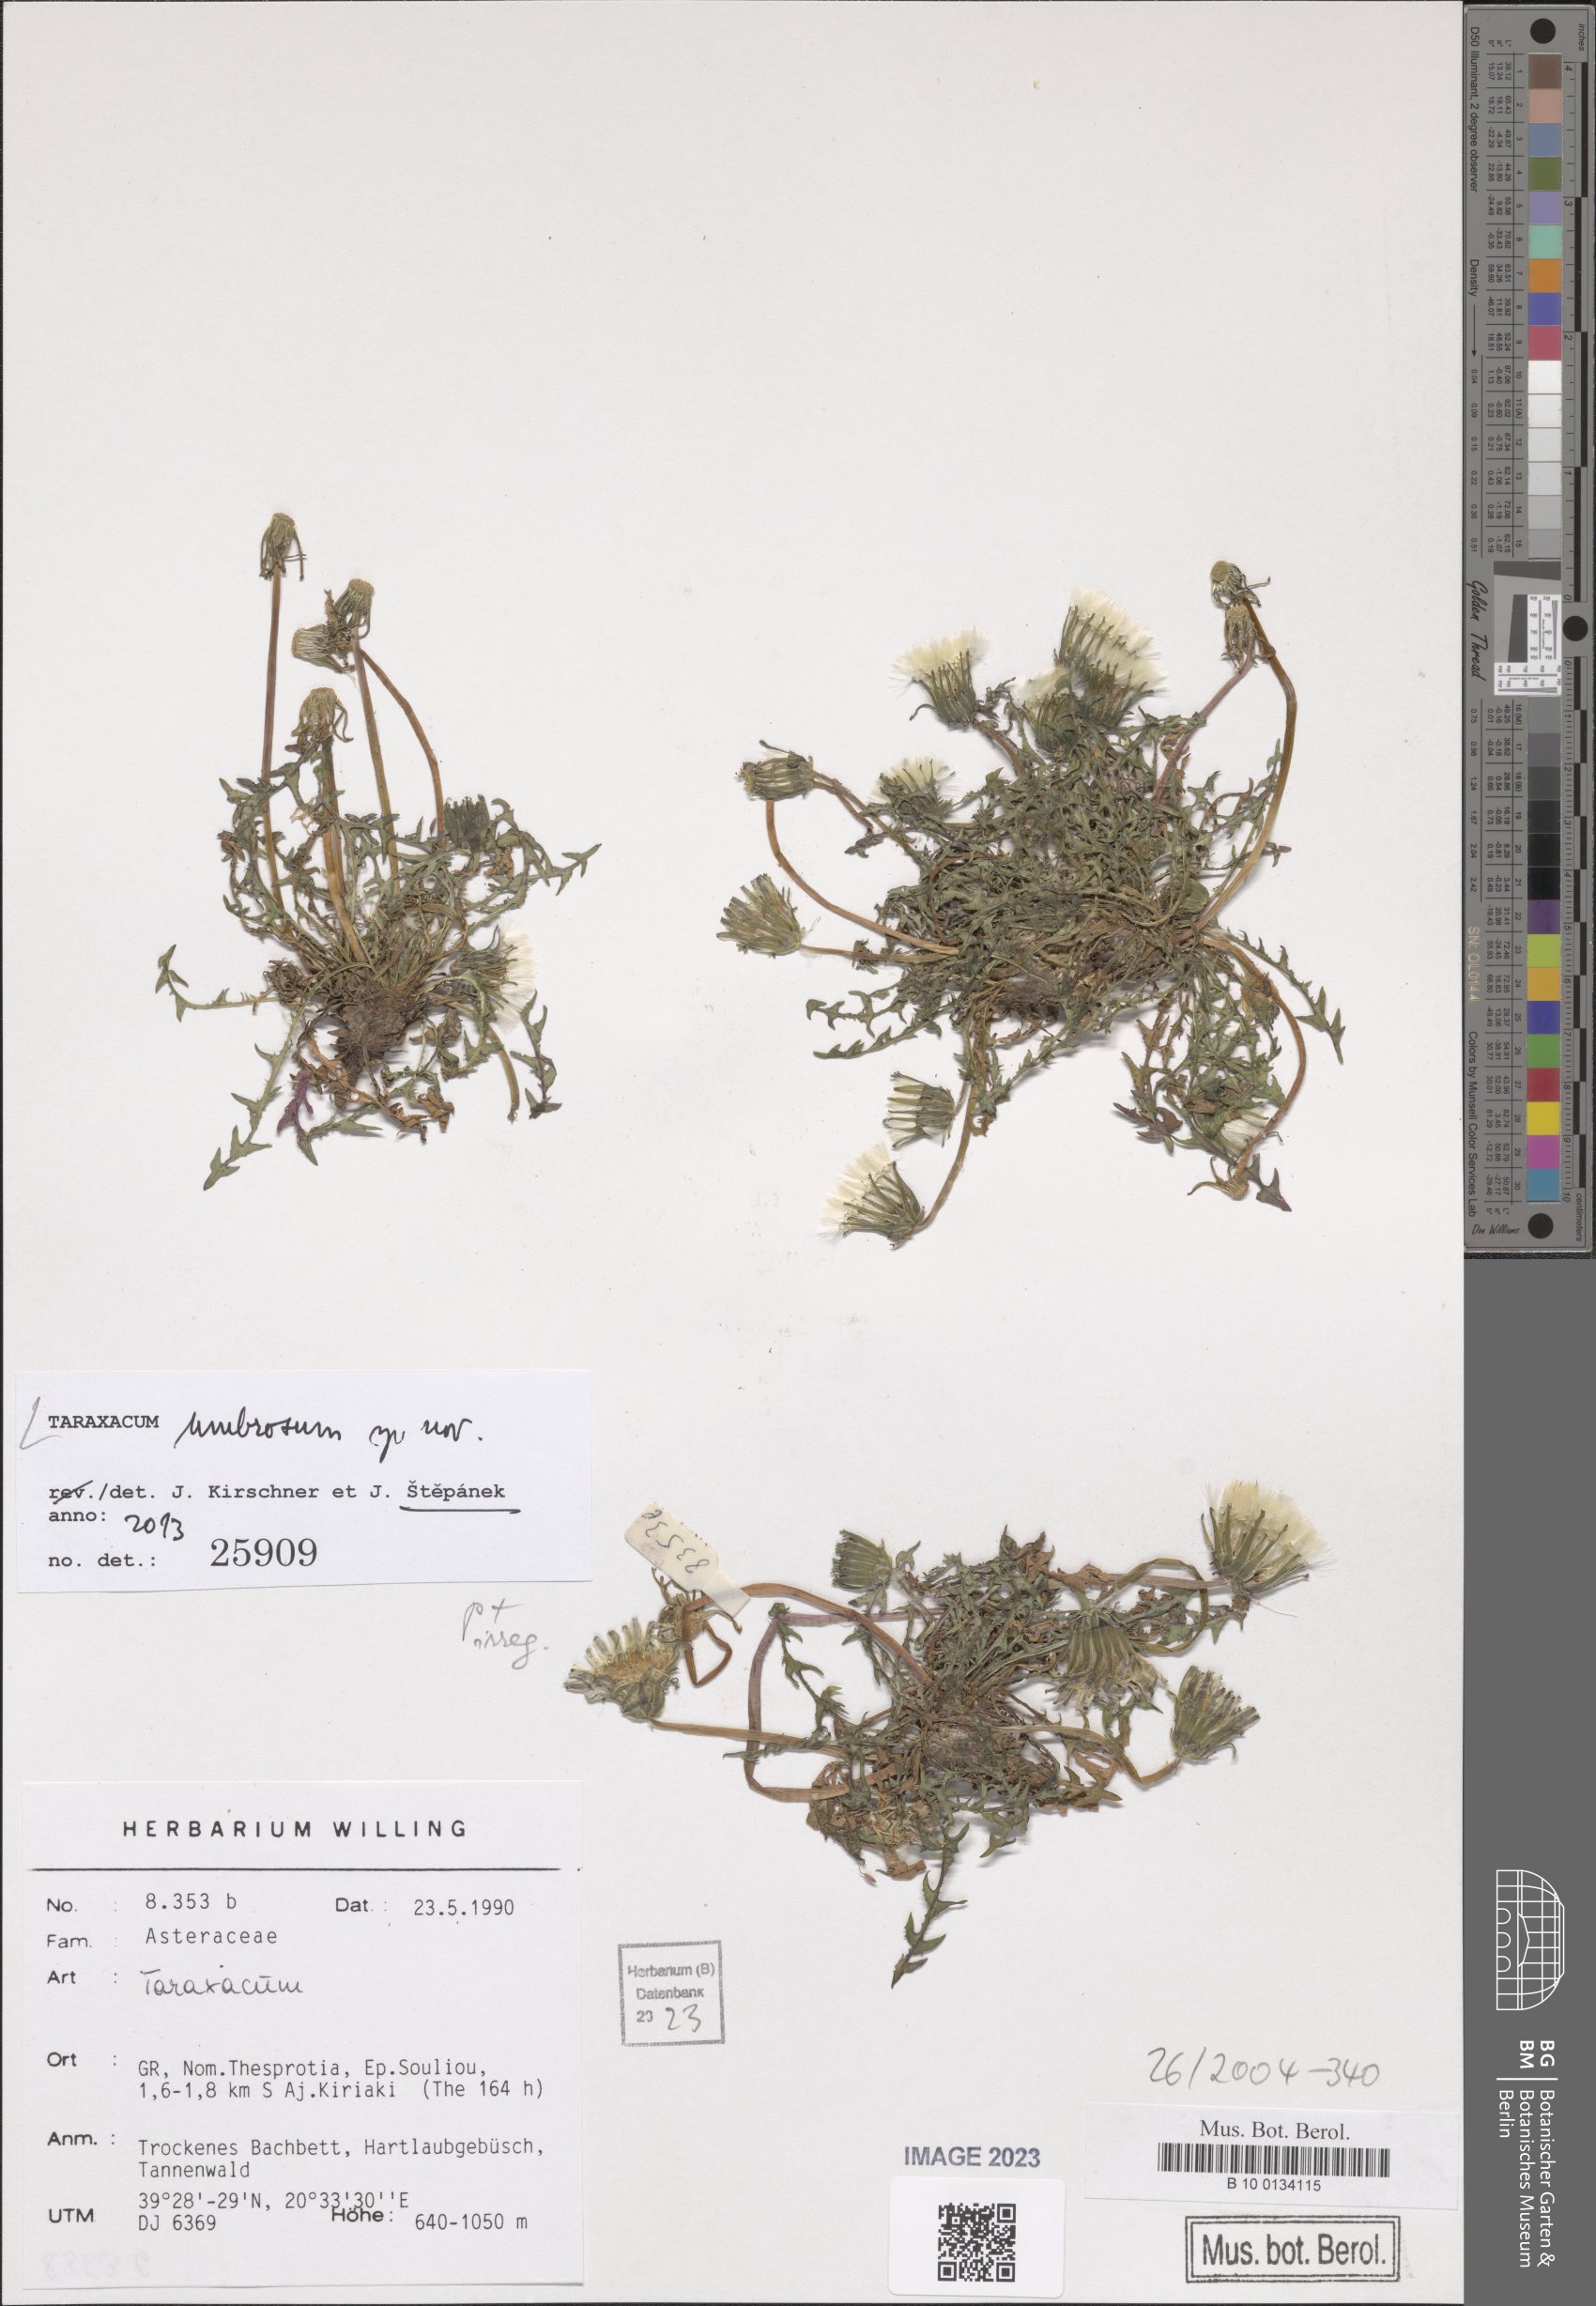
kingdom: Plantae
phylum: Tracheophyta
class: Magnoliopsida
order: Asterales
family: Asteraceae
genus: Taraxacum
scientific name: Taraxacum umbrosum
